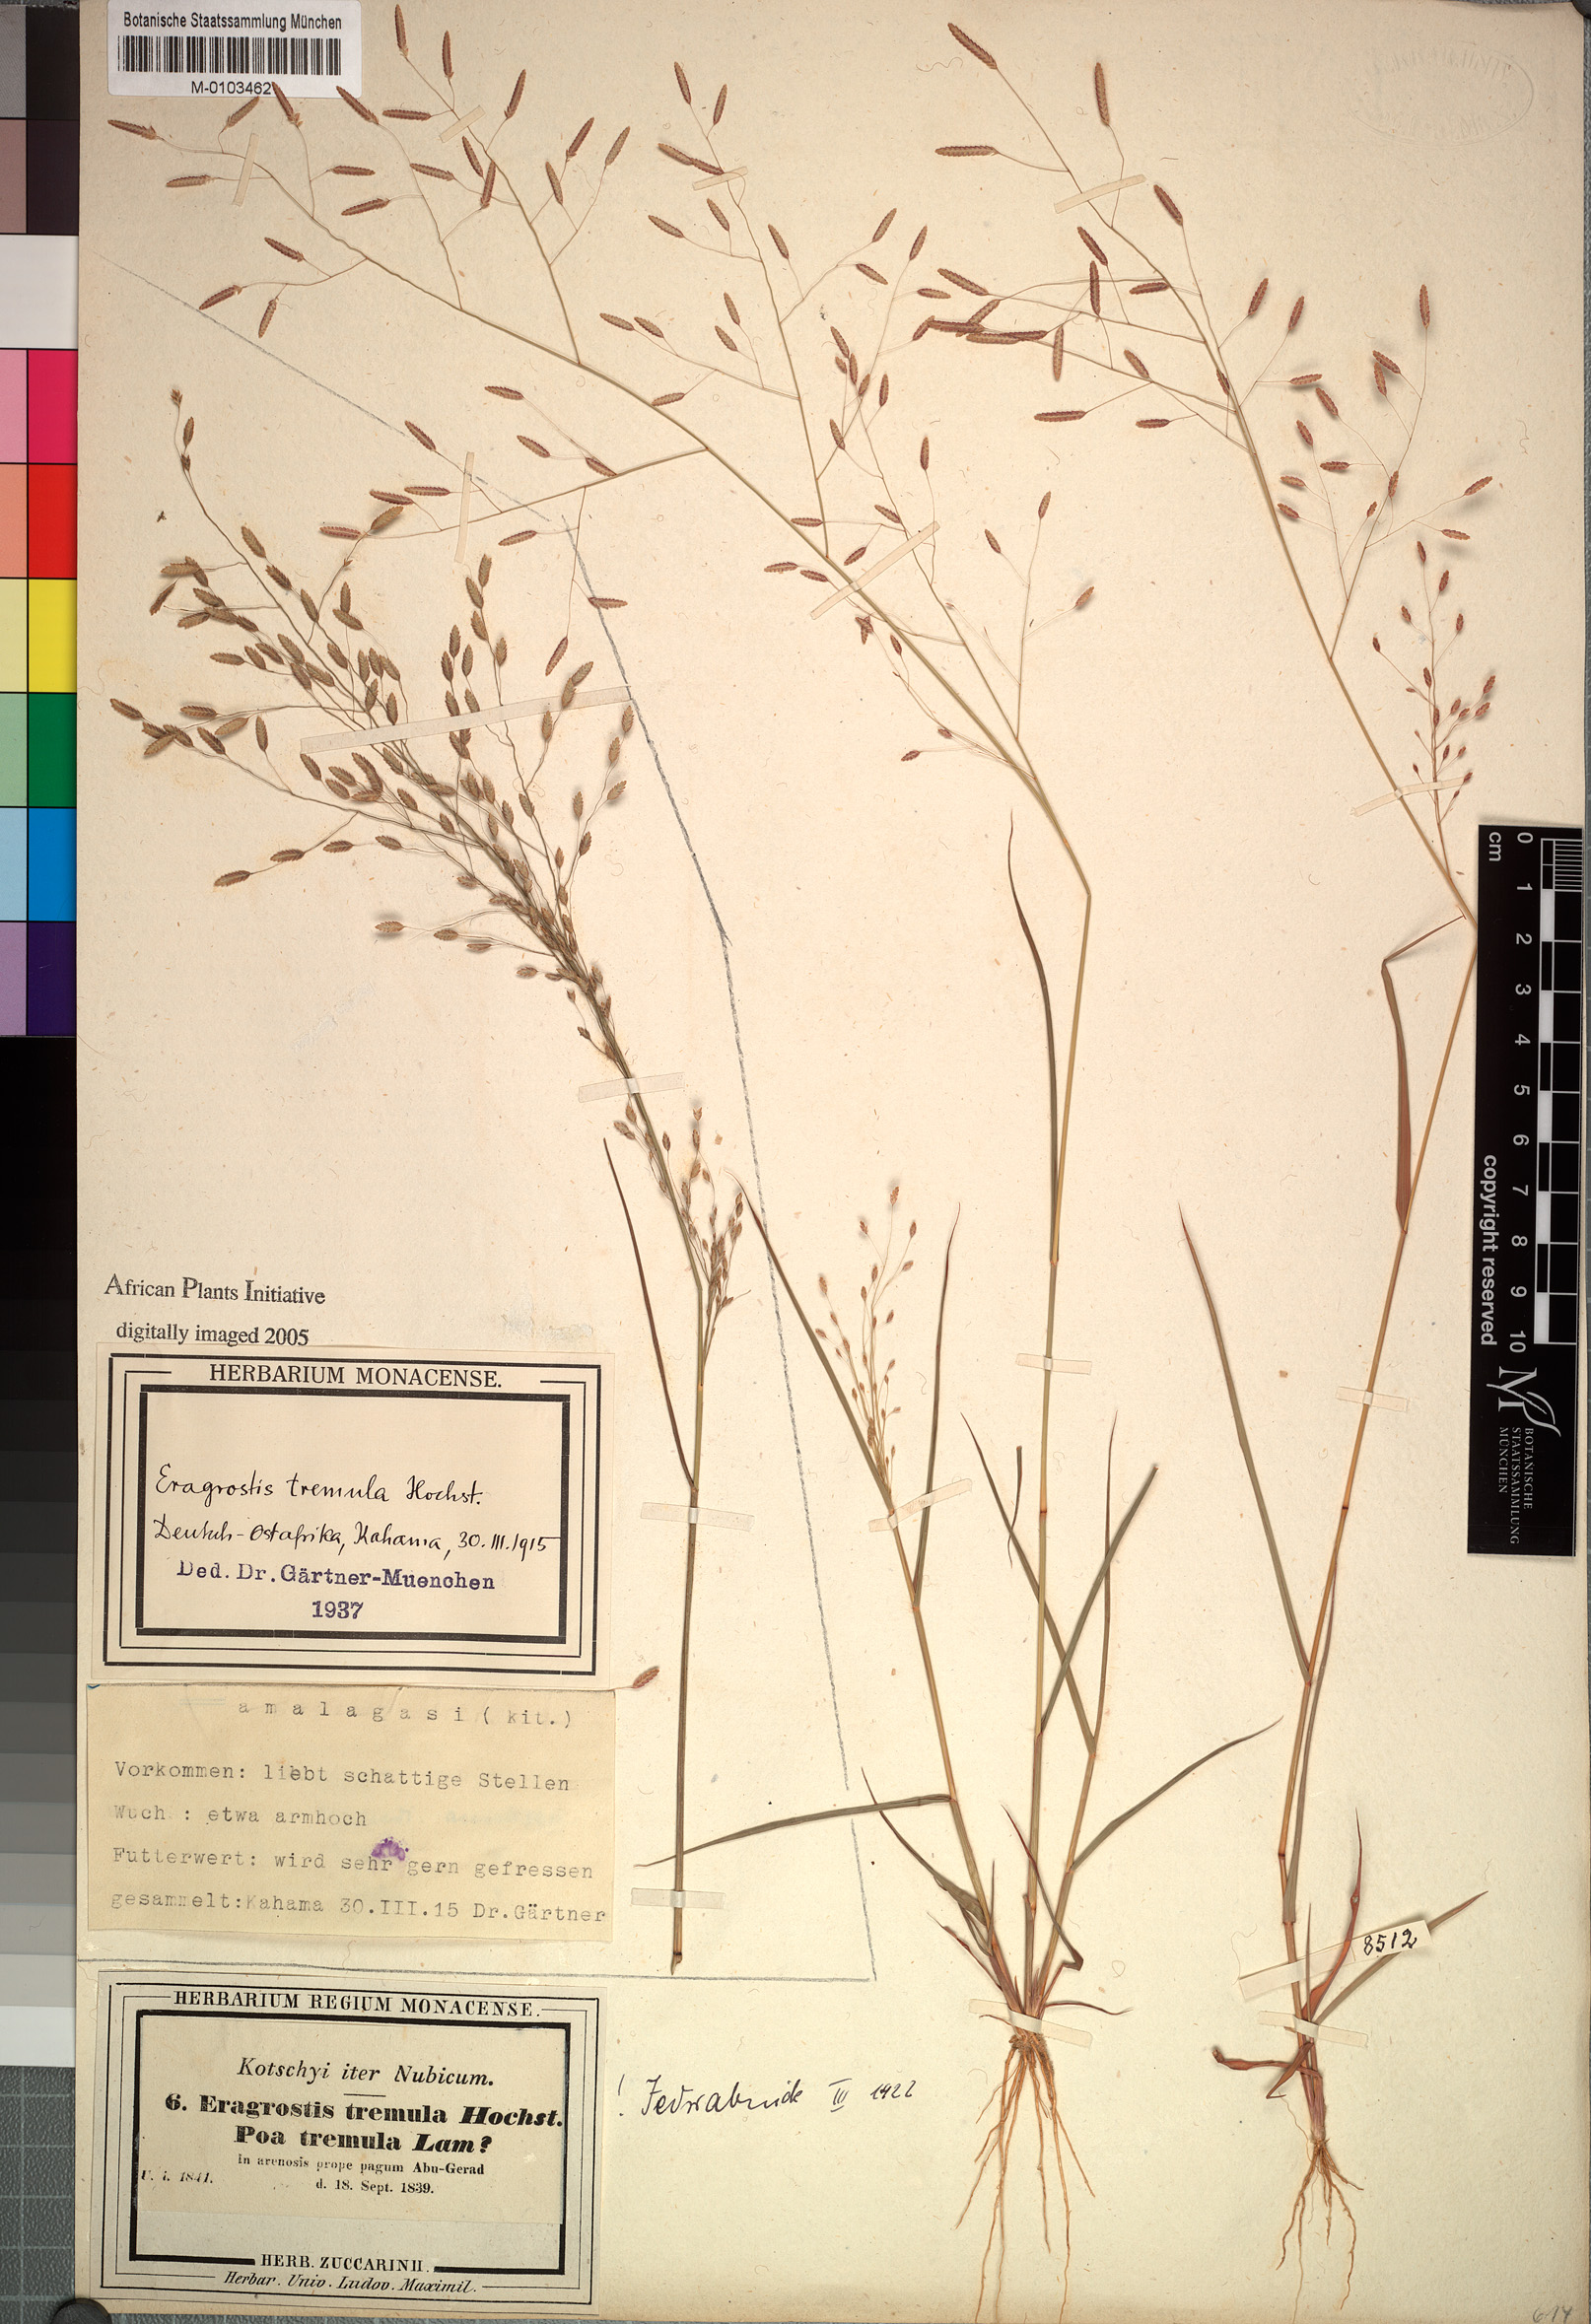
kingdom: Plantae
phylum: Tracheophyta
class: Liliopsida
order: Poales
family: Poaceae
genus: Eragrostis
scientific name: Eragrostis tremula
